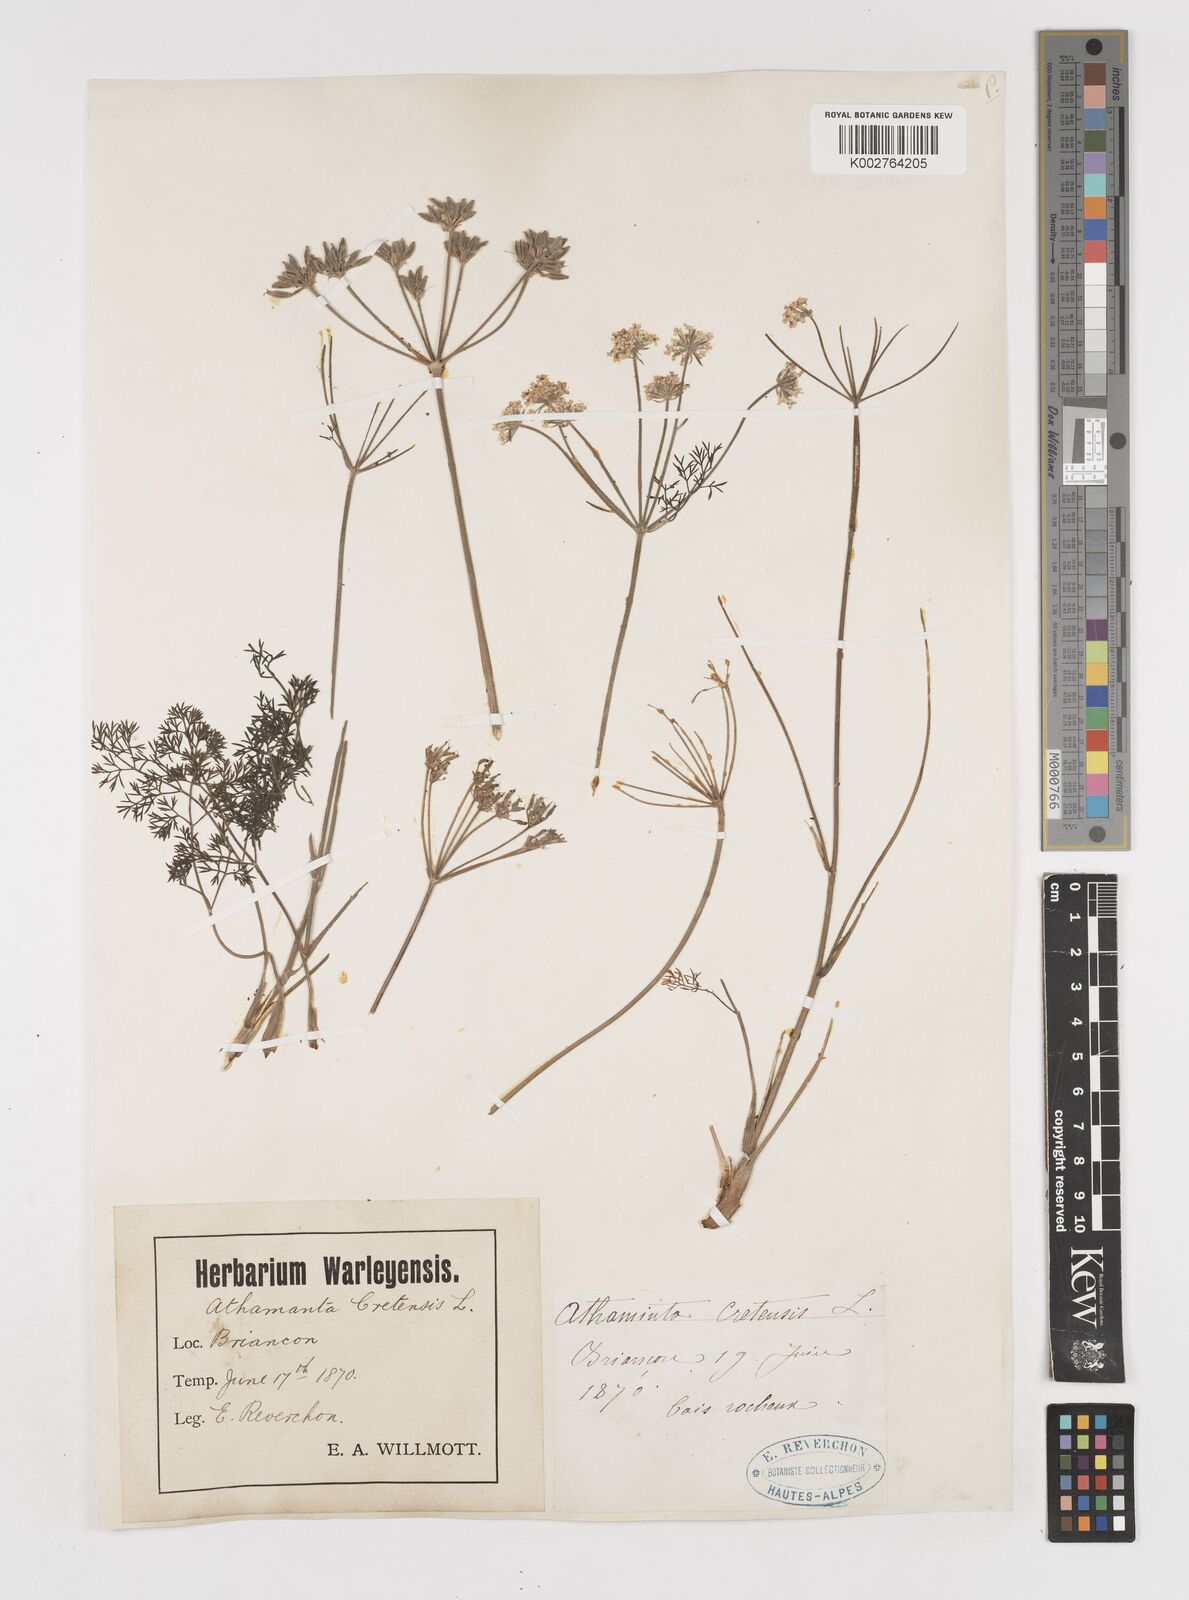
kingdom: Plantae
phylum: Tracheophyta
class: Magnoliopsida
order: Apiales
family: Apiaceae
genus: Athamanta
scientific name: Athamanta cretensis
